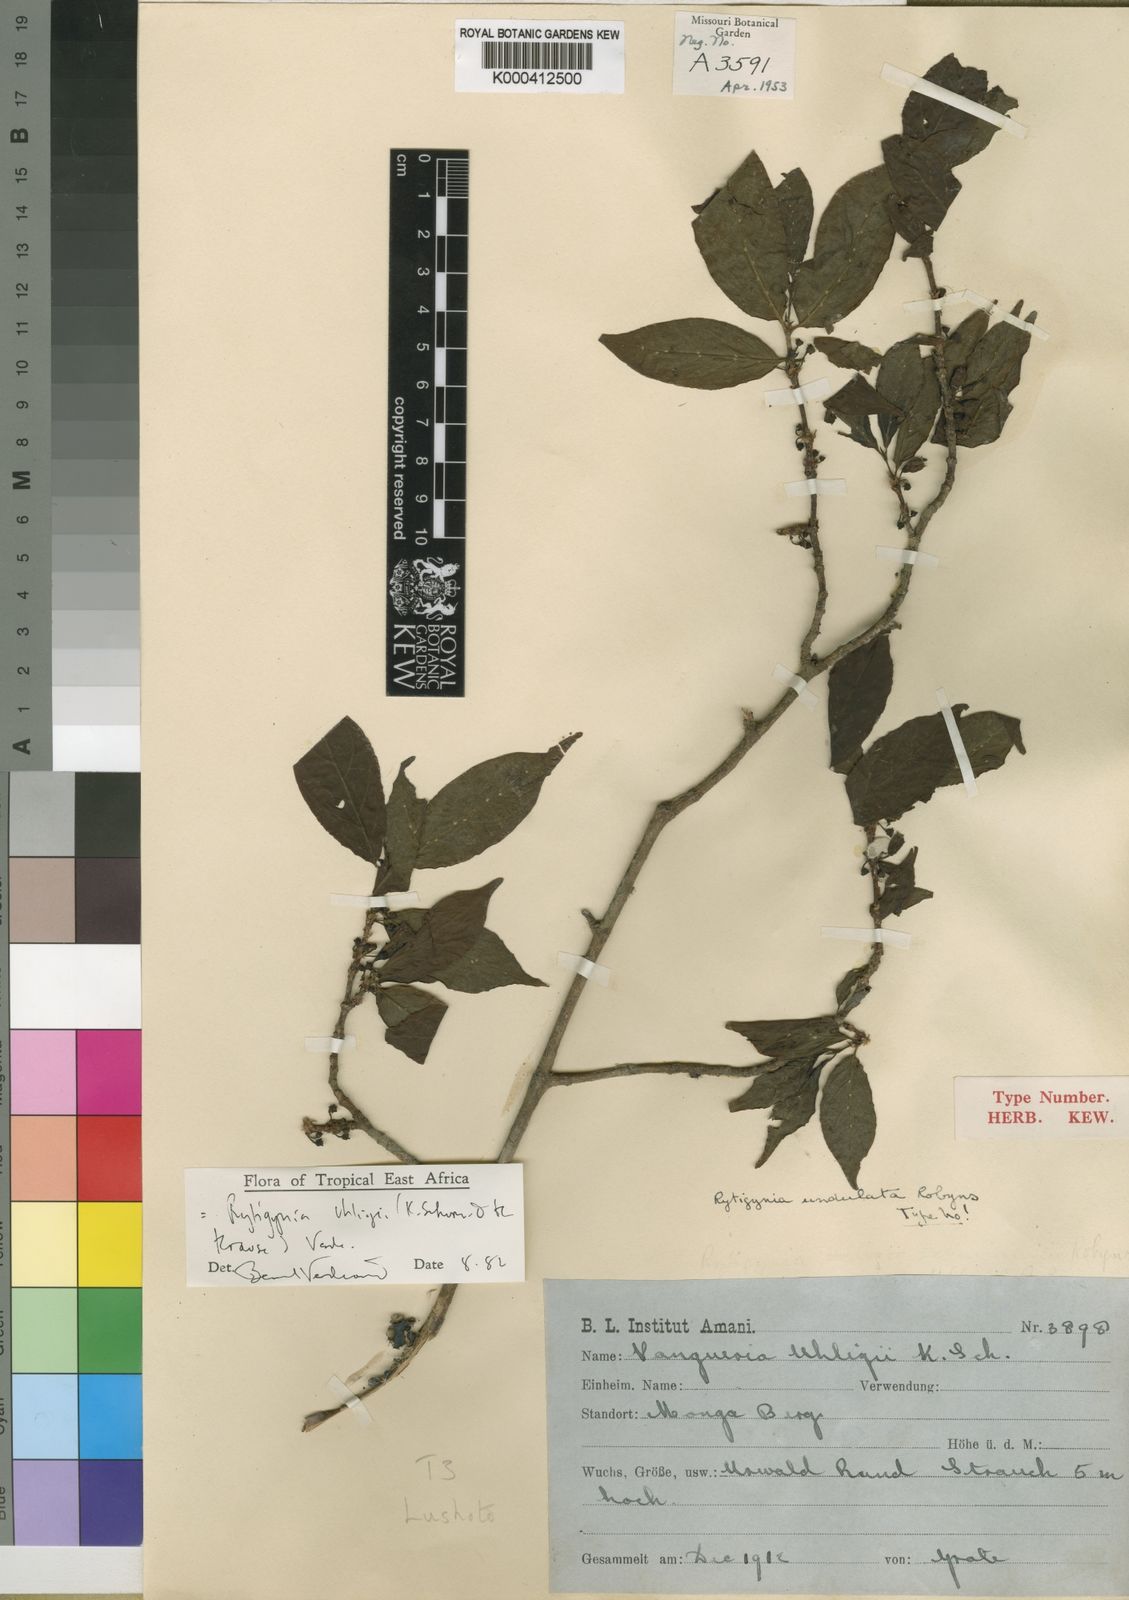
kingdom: Plantae
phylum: Tracheophyta
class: Magnoliopsida
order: Gentianales
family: Rubiaceae
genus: Rytigynia
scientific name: Rytigynia uhligii
